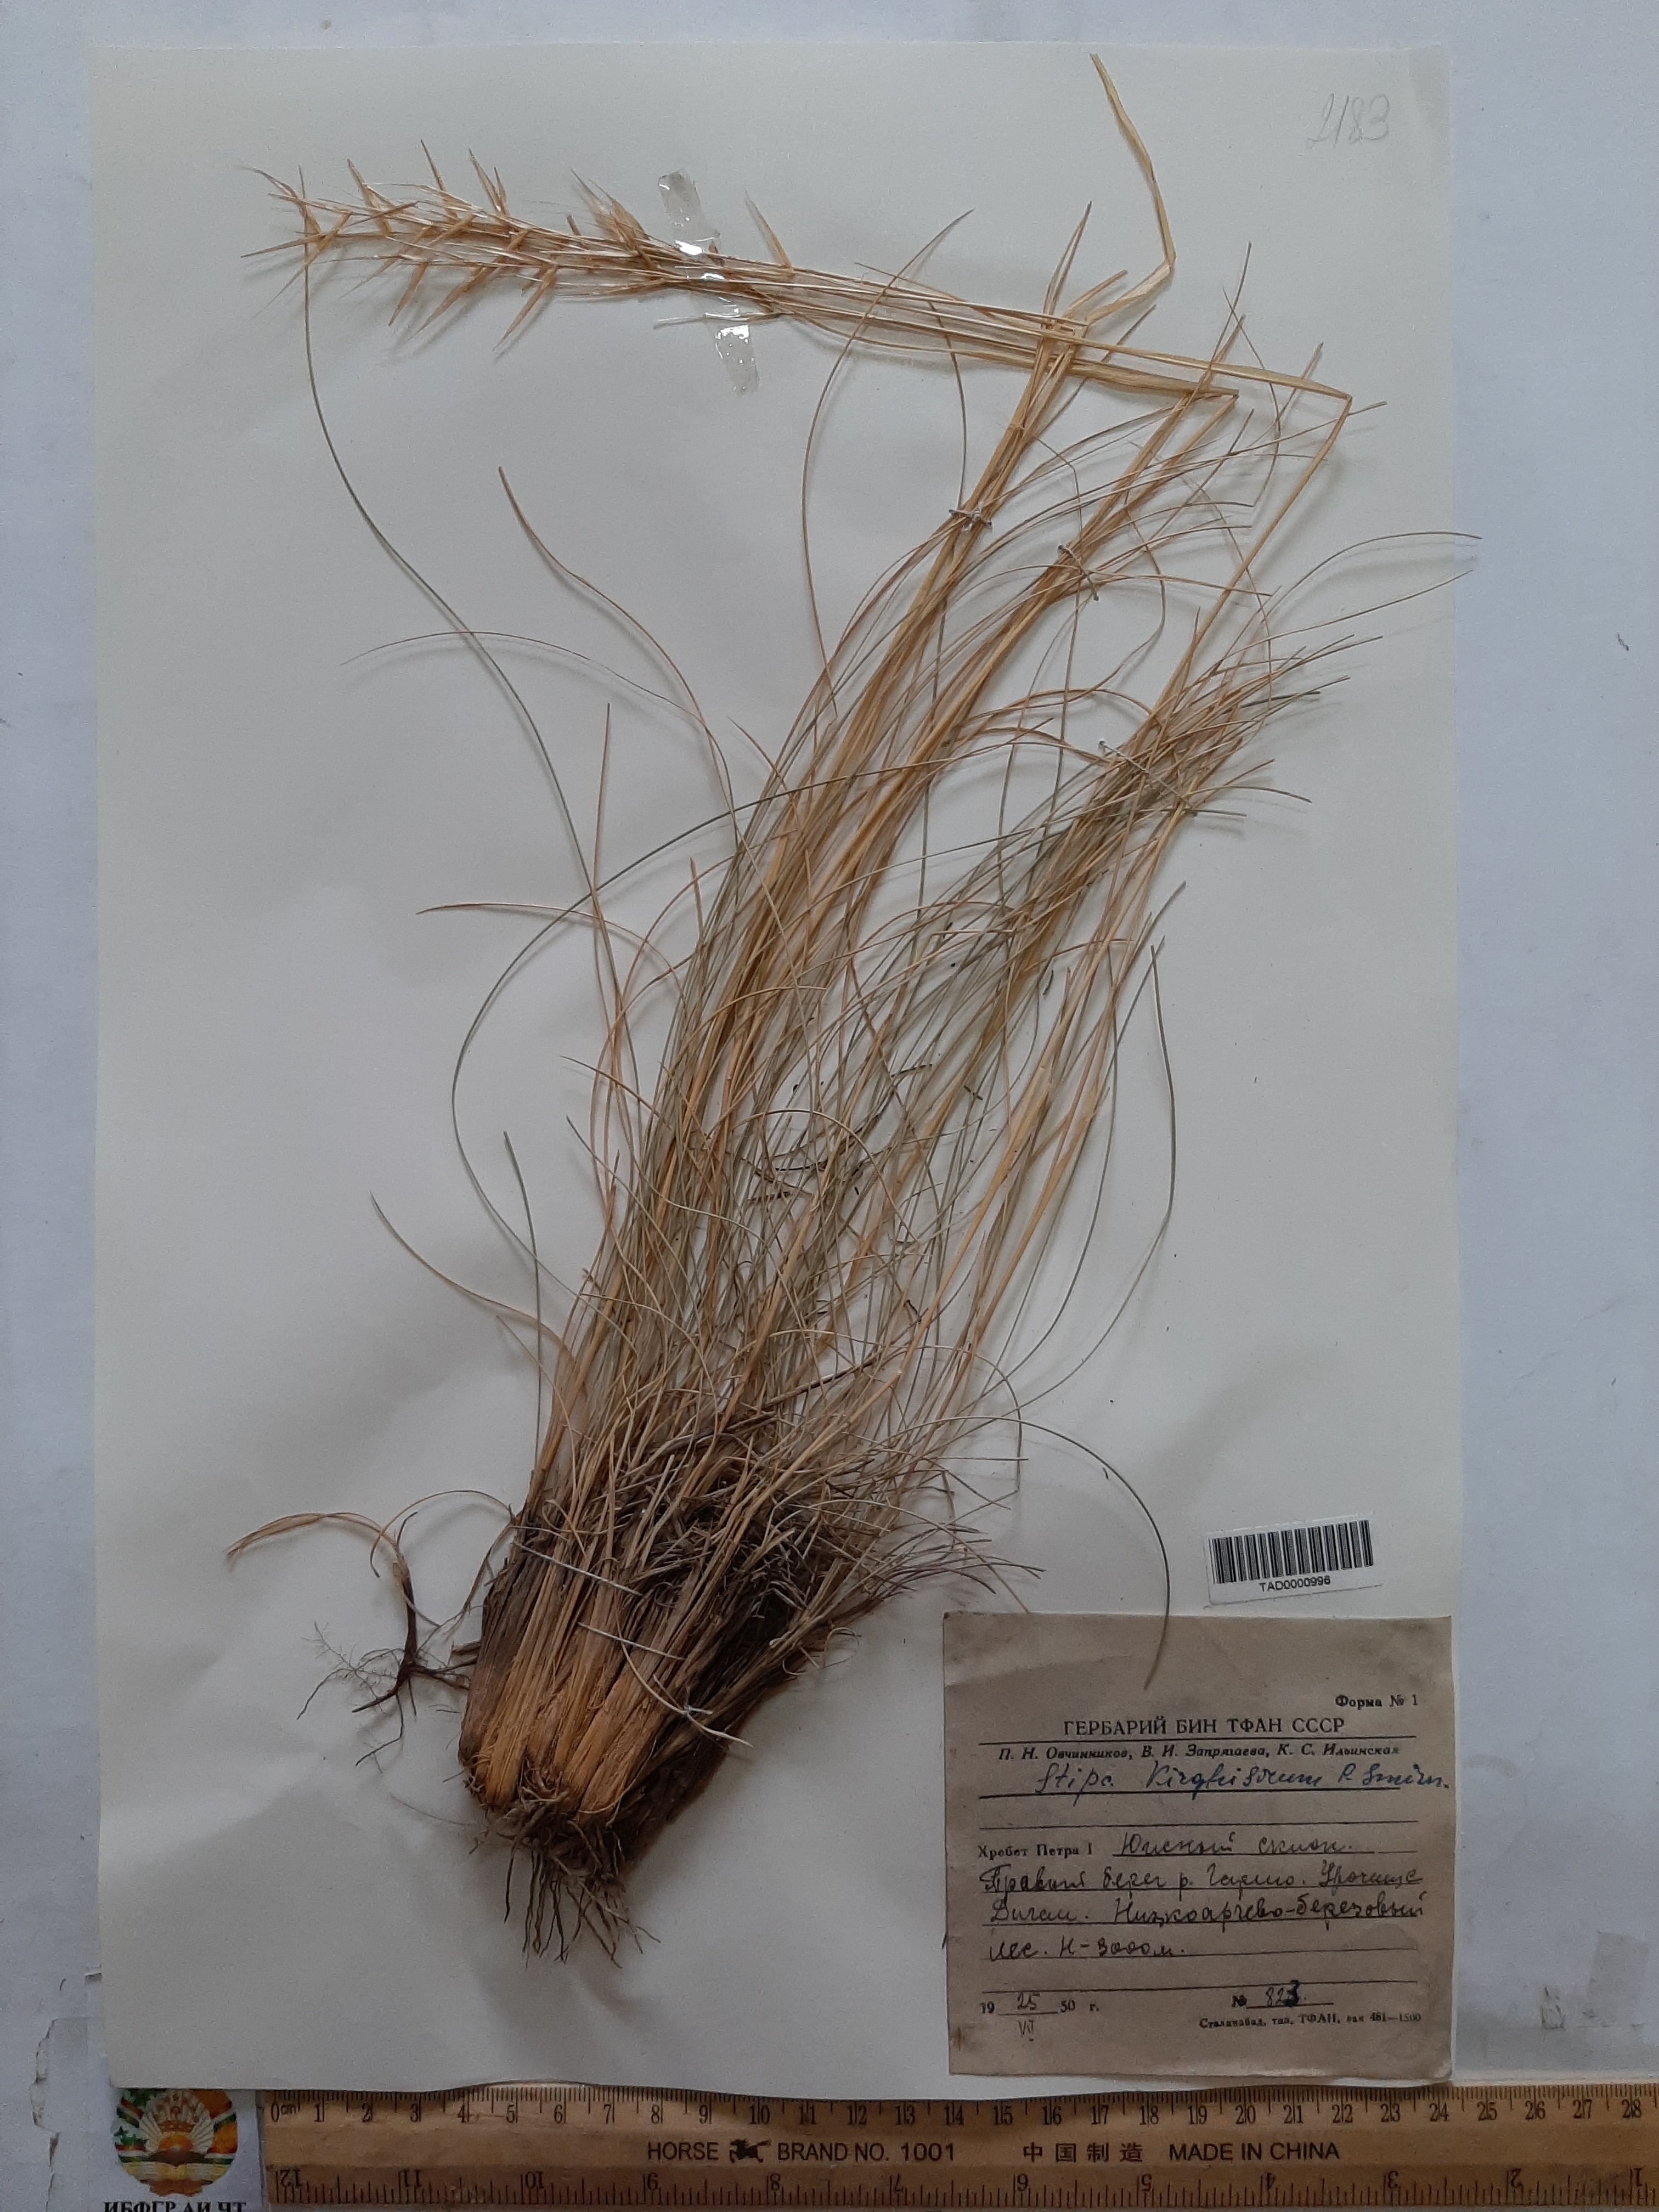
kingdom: Plantae
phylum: Tracheophyta
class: Liliopsida
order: Poales
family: Poaceae
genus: Stipa
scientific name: Stipa kirghisorum
